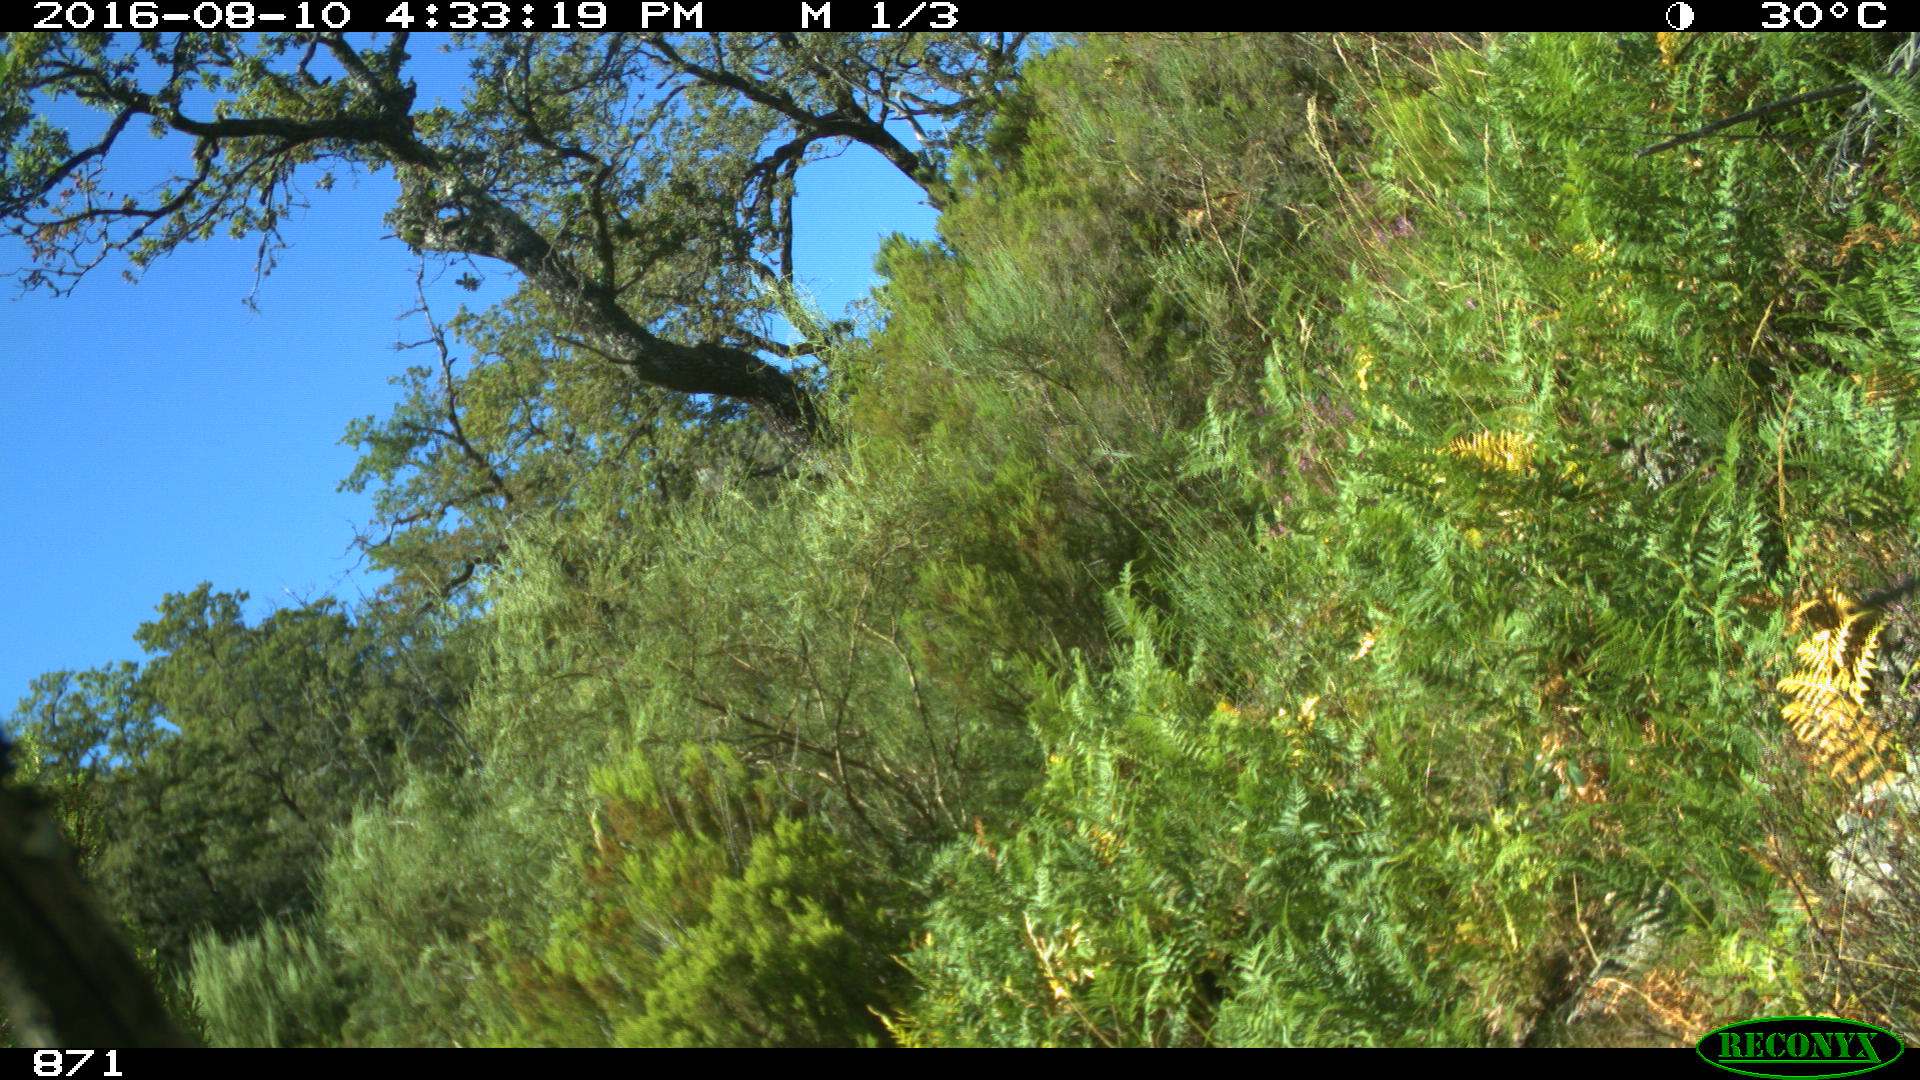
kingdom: Animalia
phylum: Chordata
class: Mammalia
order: Artiodactyla
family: Bovidae
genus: Bos
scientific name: Bos taurus
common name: Domesticated cattle
